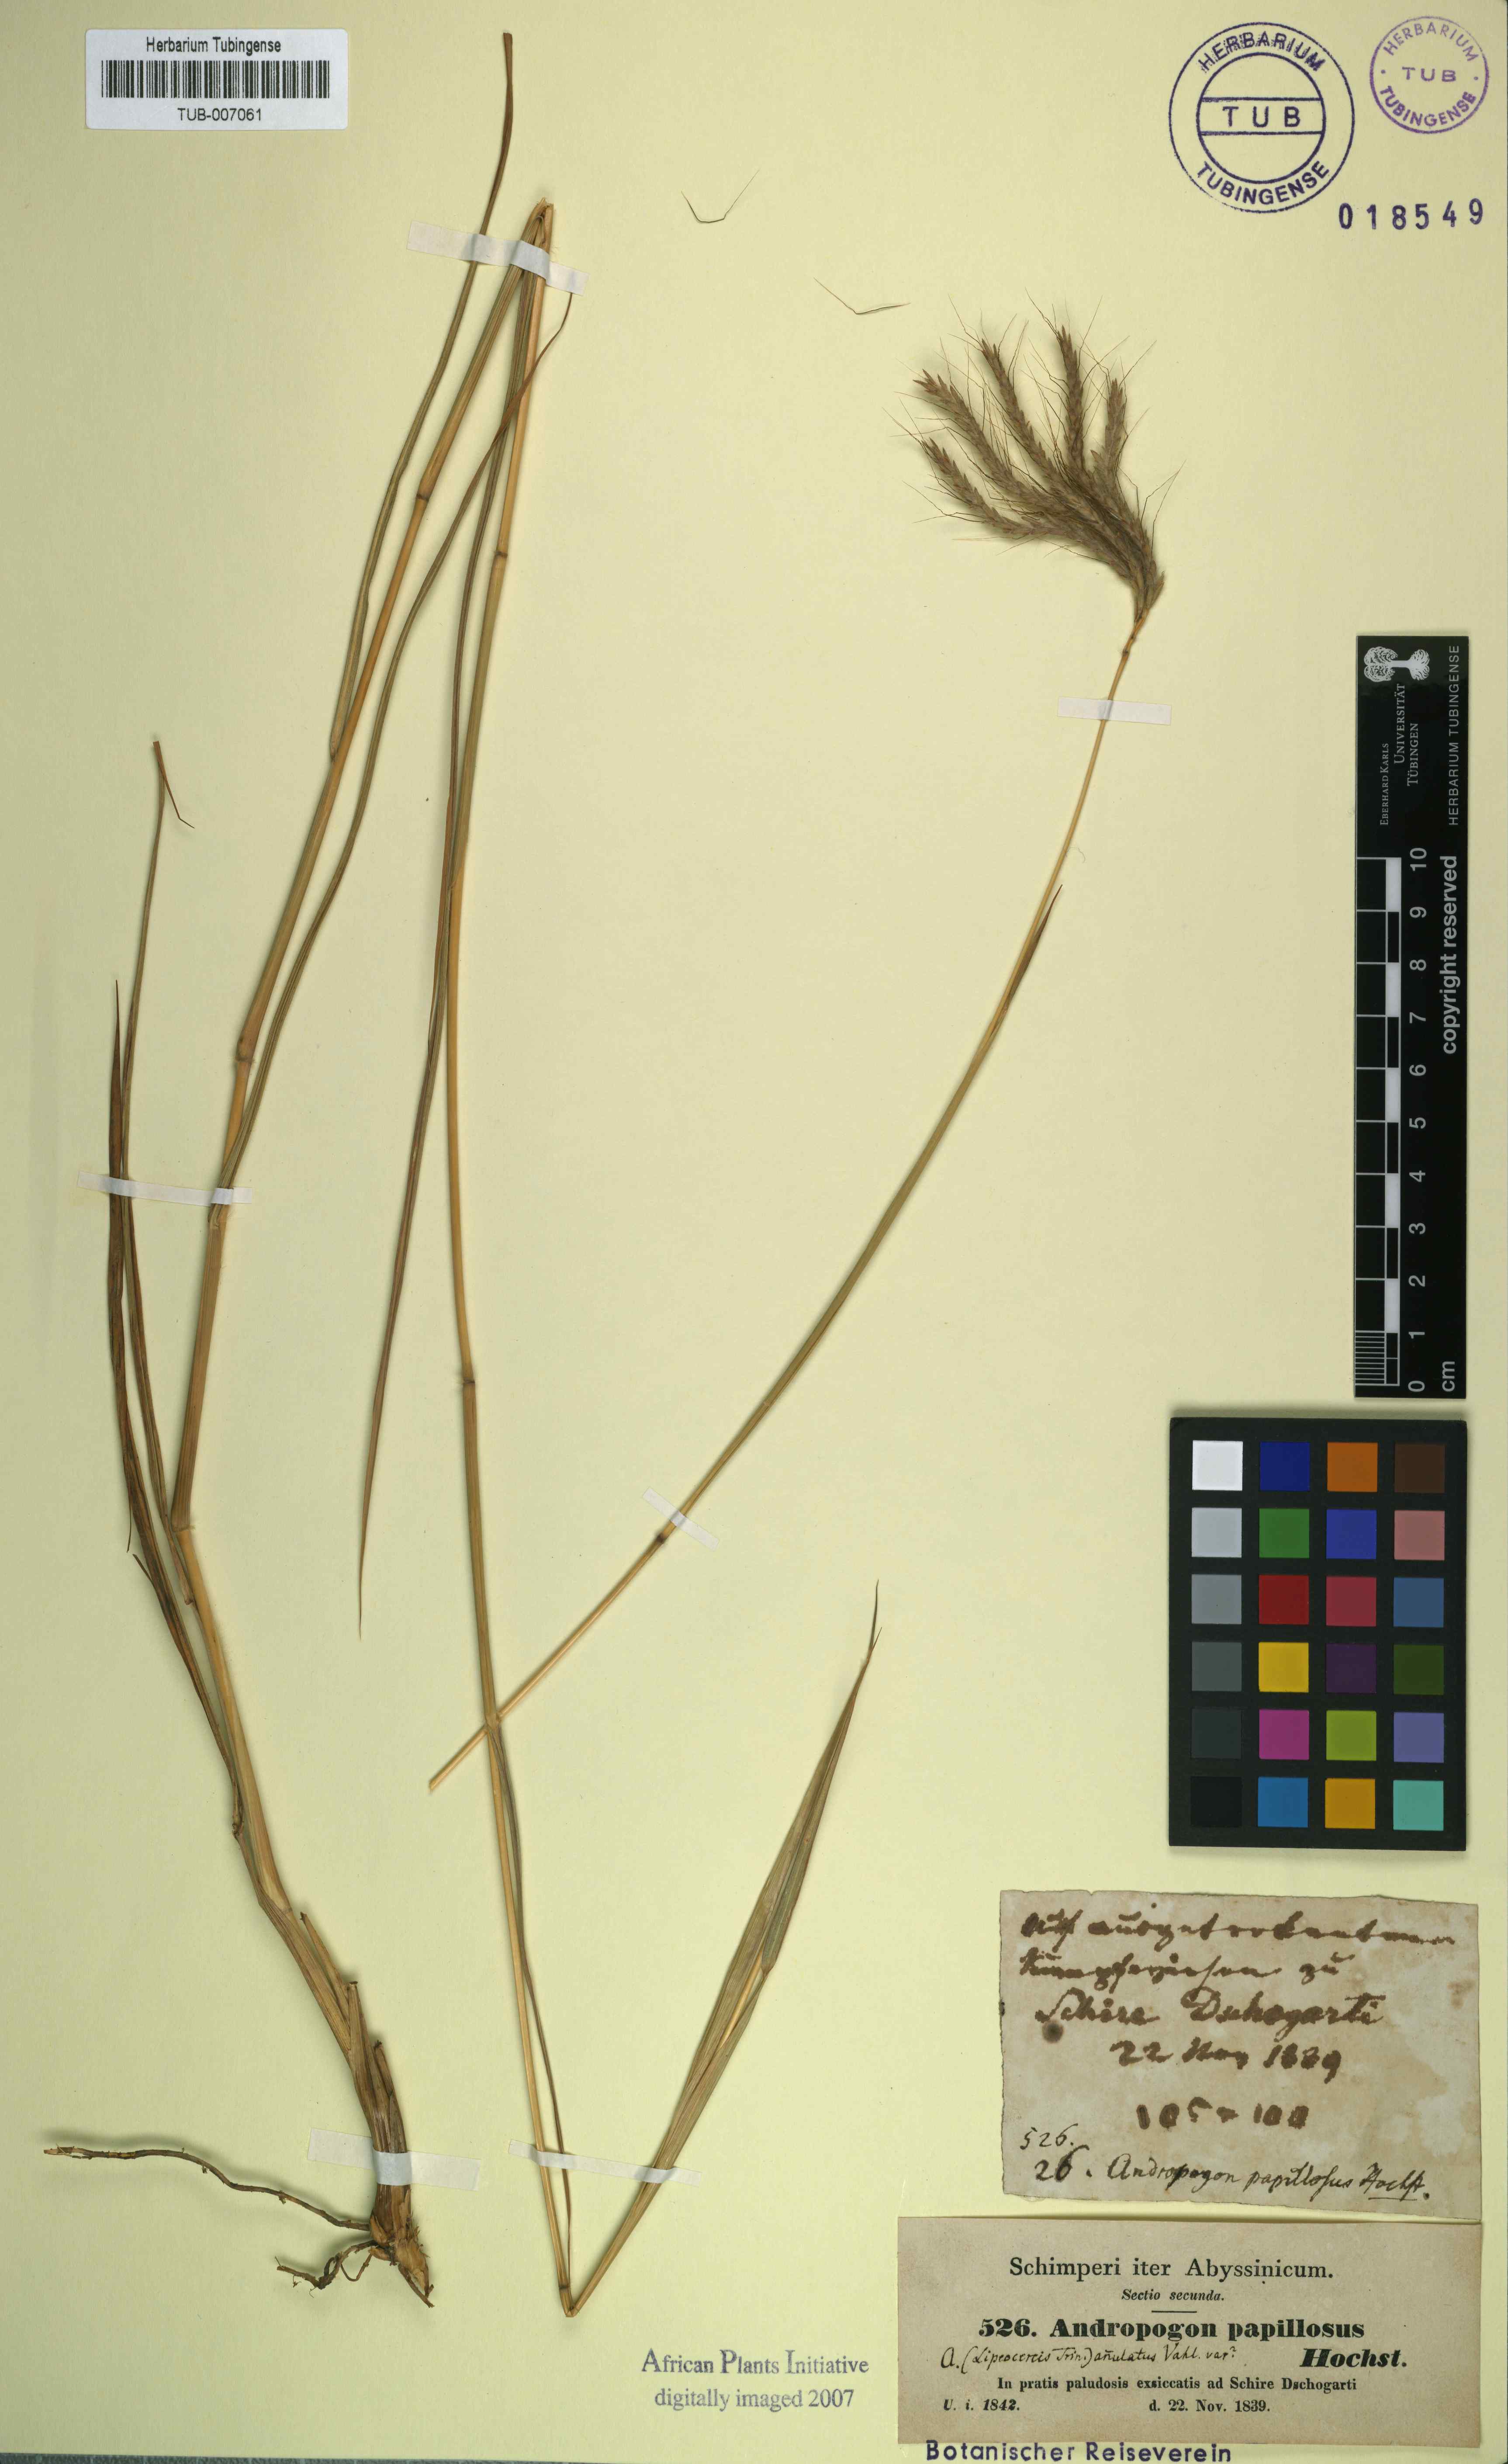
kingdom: Plantae
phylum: Tracheophyta
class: Liliopsida
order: Poales
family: Poaceae
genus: Dichanthium
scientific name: Dichanthium annulatum
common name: Kleberg's bluestem
